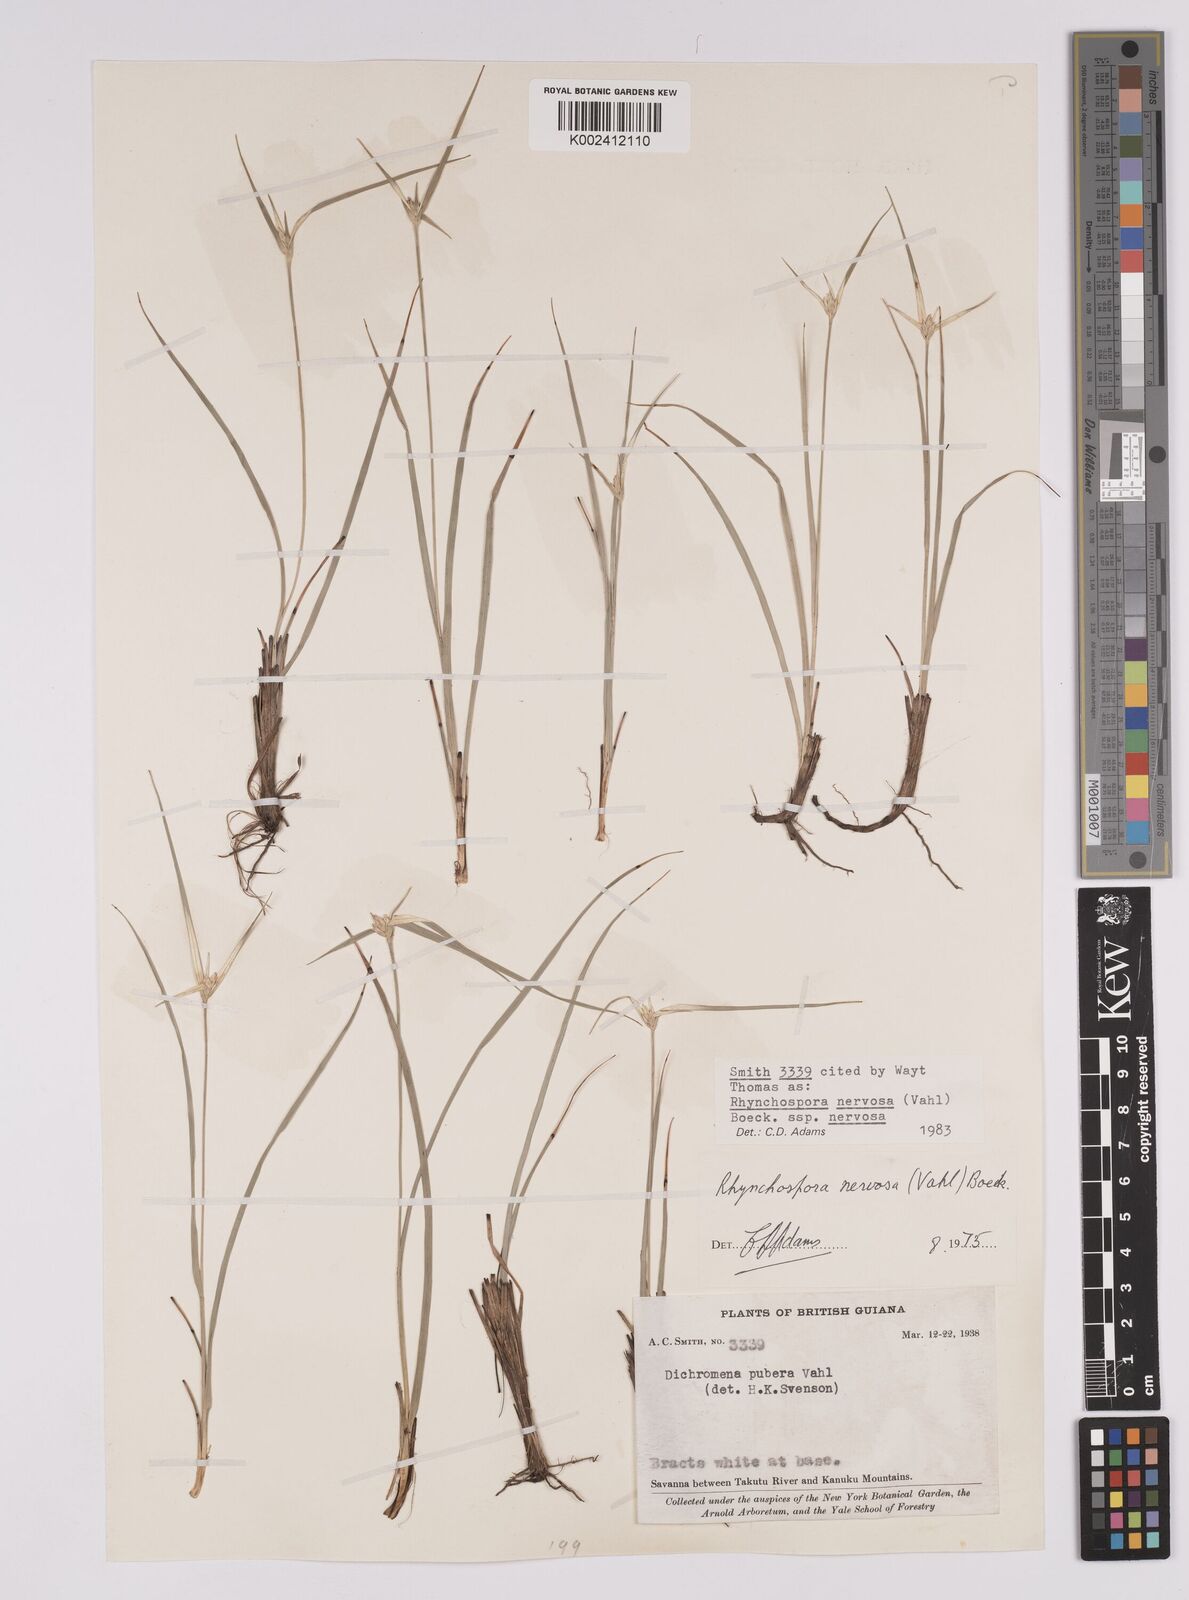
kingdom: Plantae
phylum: Tracheophyta
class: Liliopsida
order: Poales
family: Cyperaceae
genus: Rhynchospora
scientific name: Rhynchospora nervosa
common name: Star sedge
